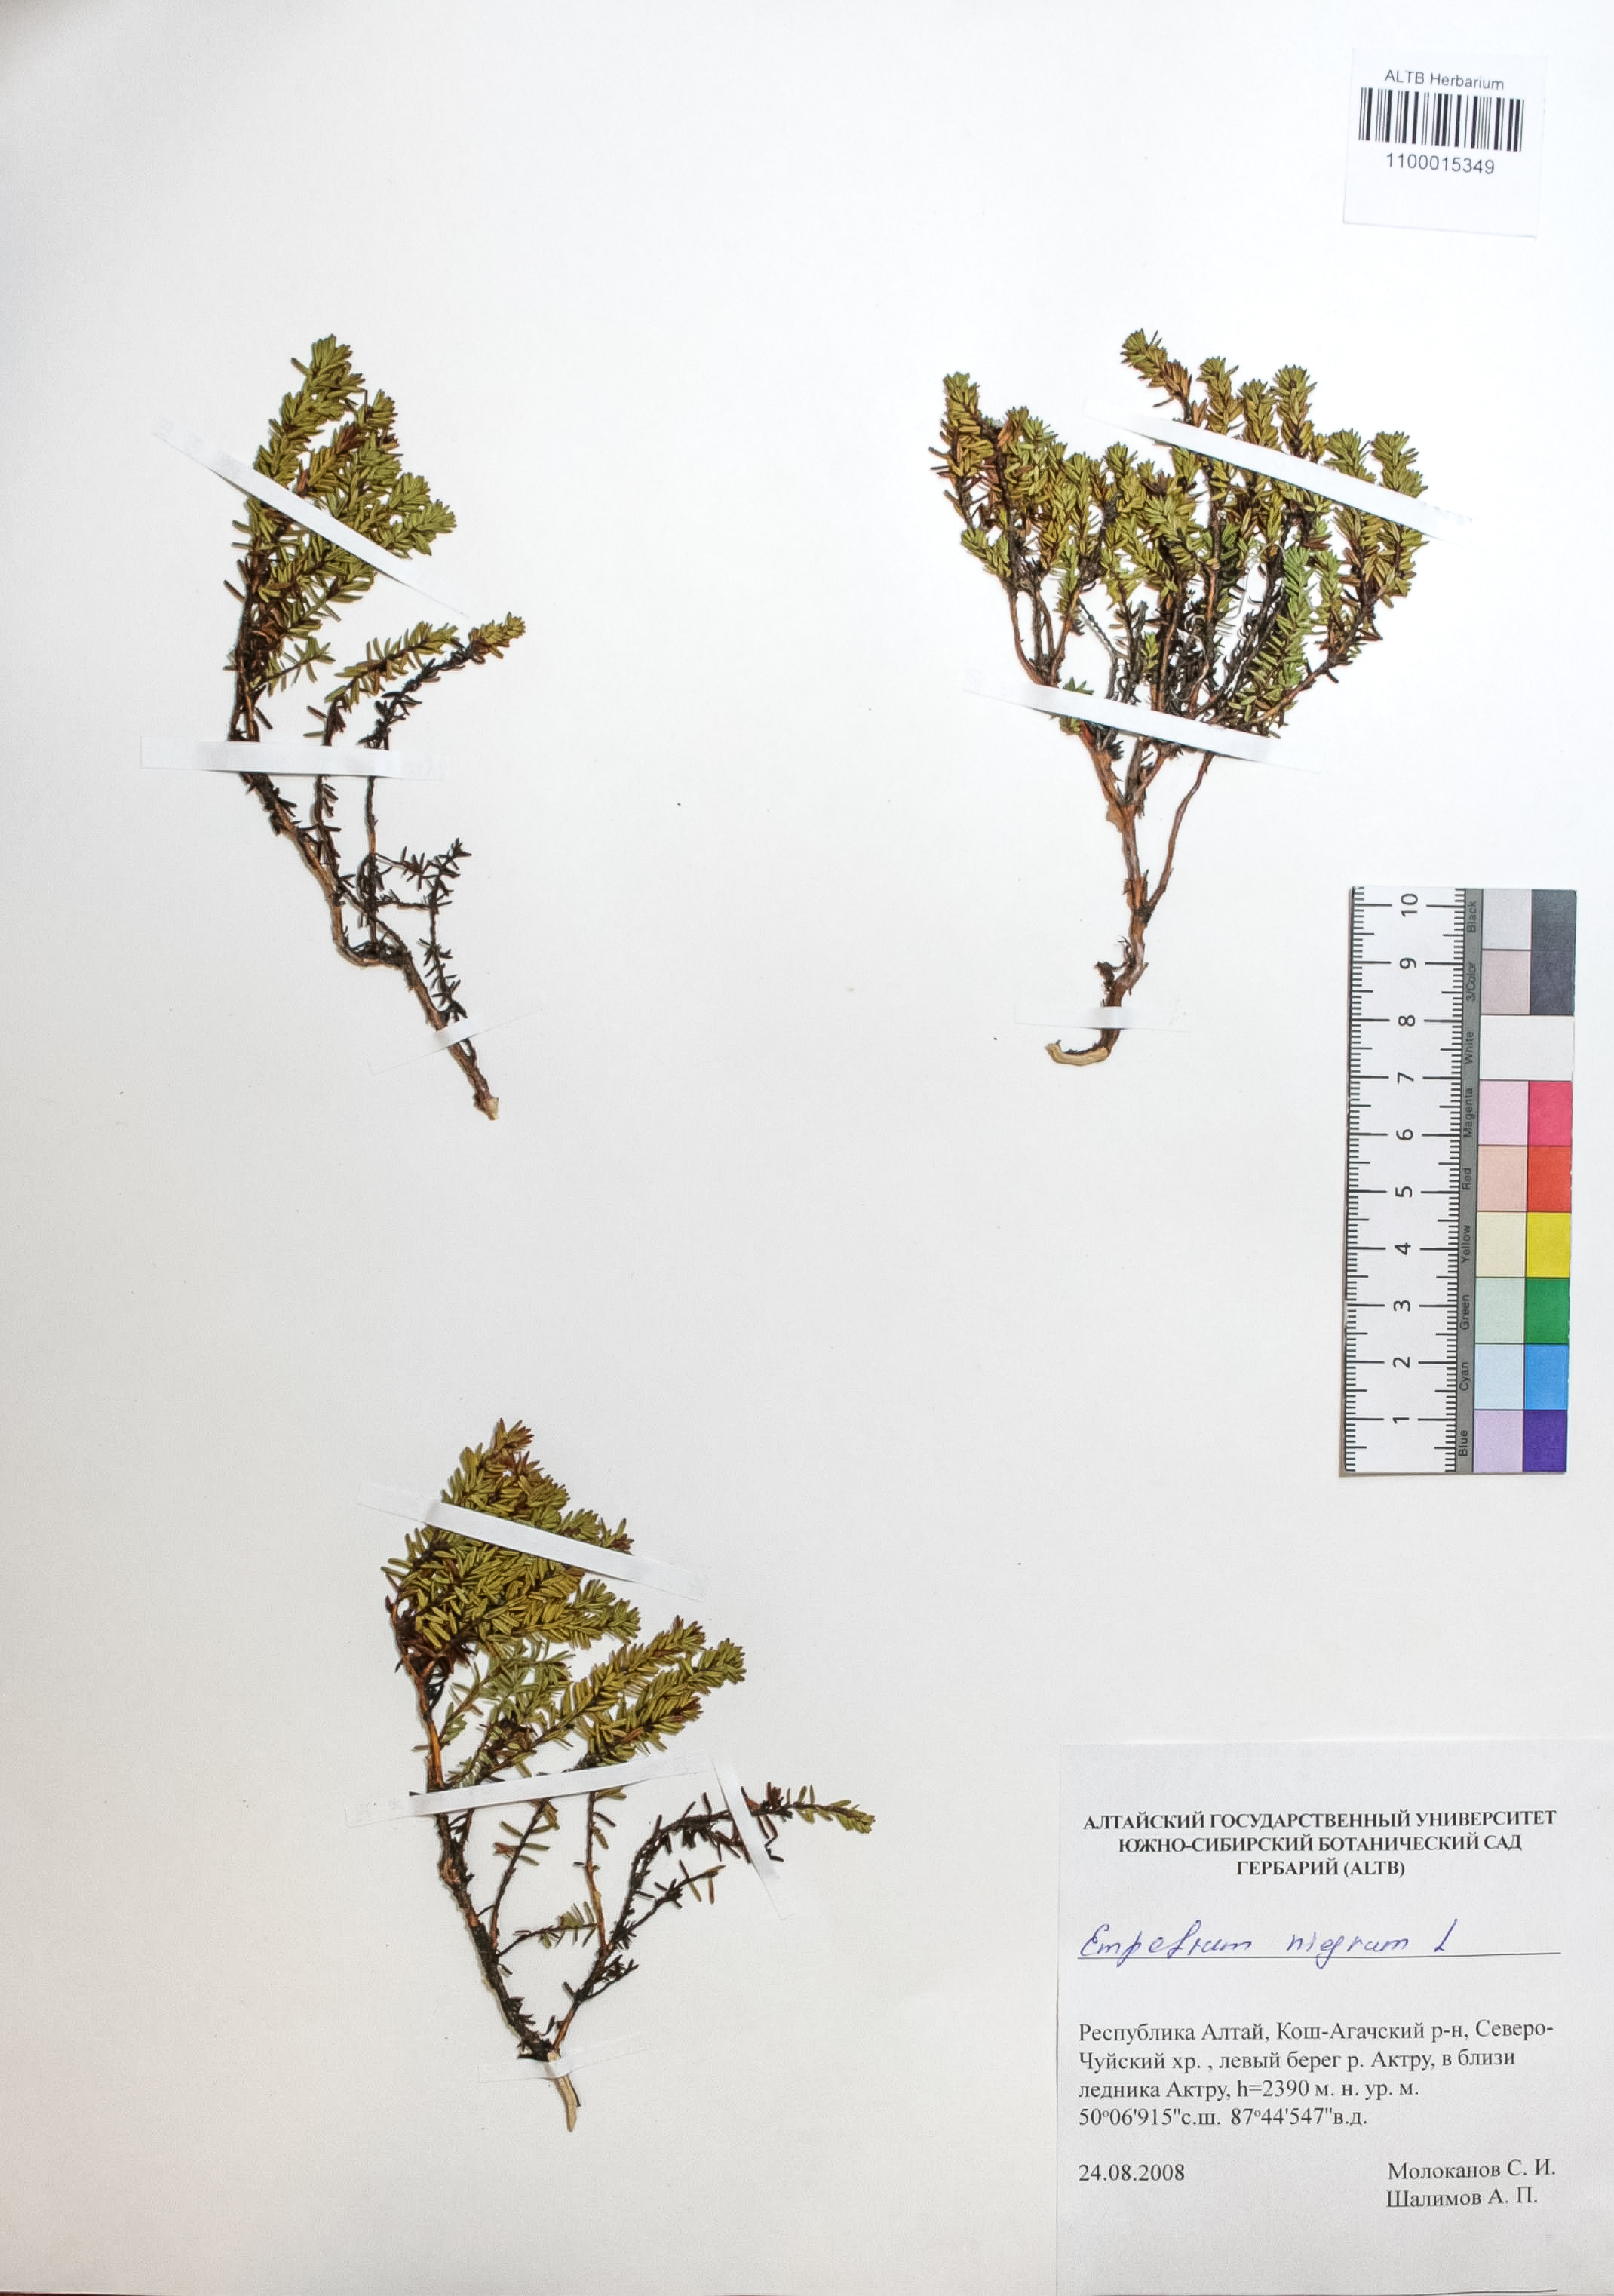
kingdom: Plantae
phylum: Tracheophyta
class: Magnoliopsida
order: Ericales
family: Ericaceae
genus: Empetrum
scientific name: Empetrum nigrum
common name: Black crowberry
